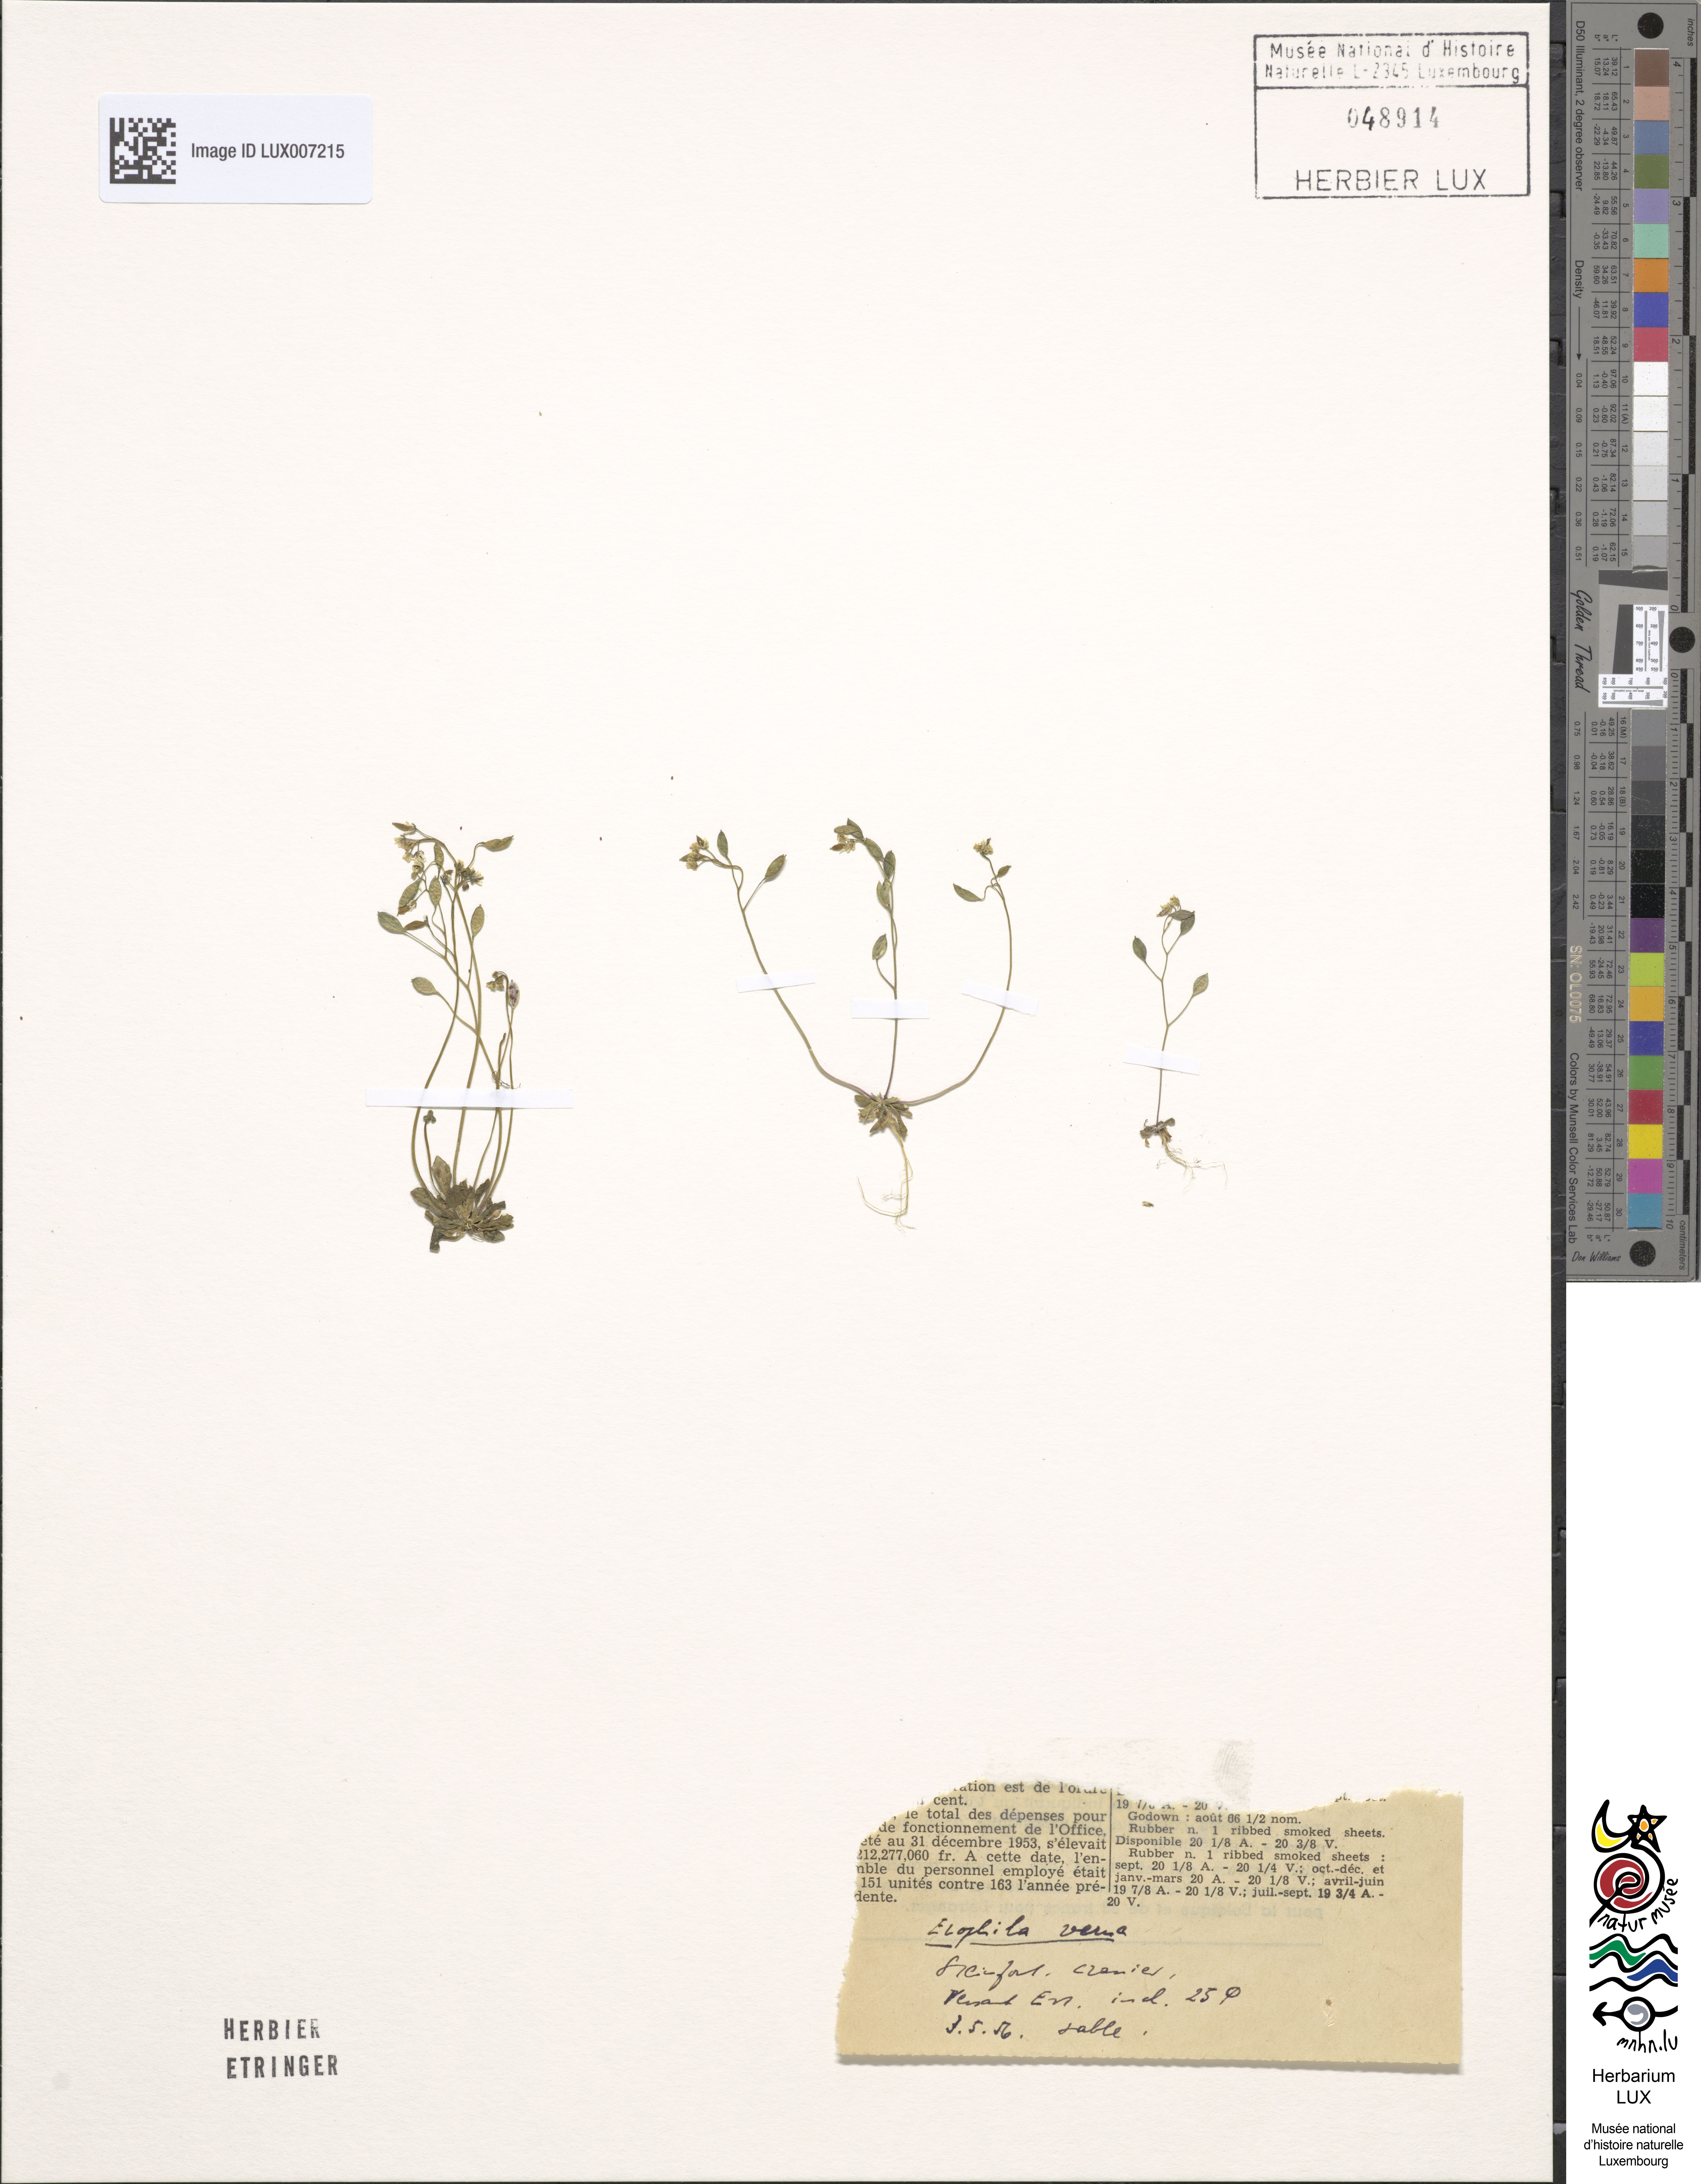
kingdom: Plantae
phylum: Tracheophyta
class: Magnoliopsida
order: Brassicales
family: Brassicaceae
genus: Draba
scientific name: Draba verna
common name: Spring draba
